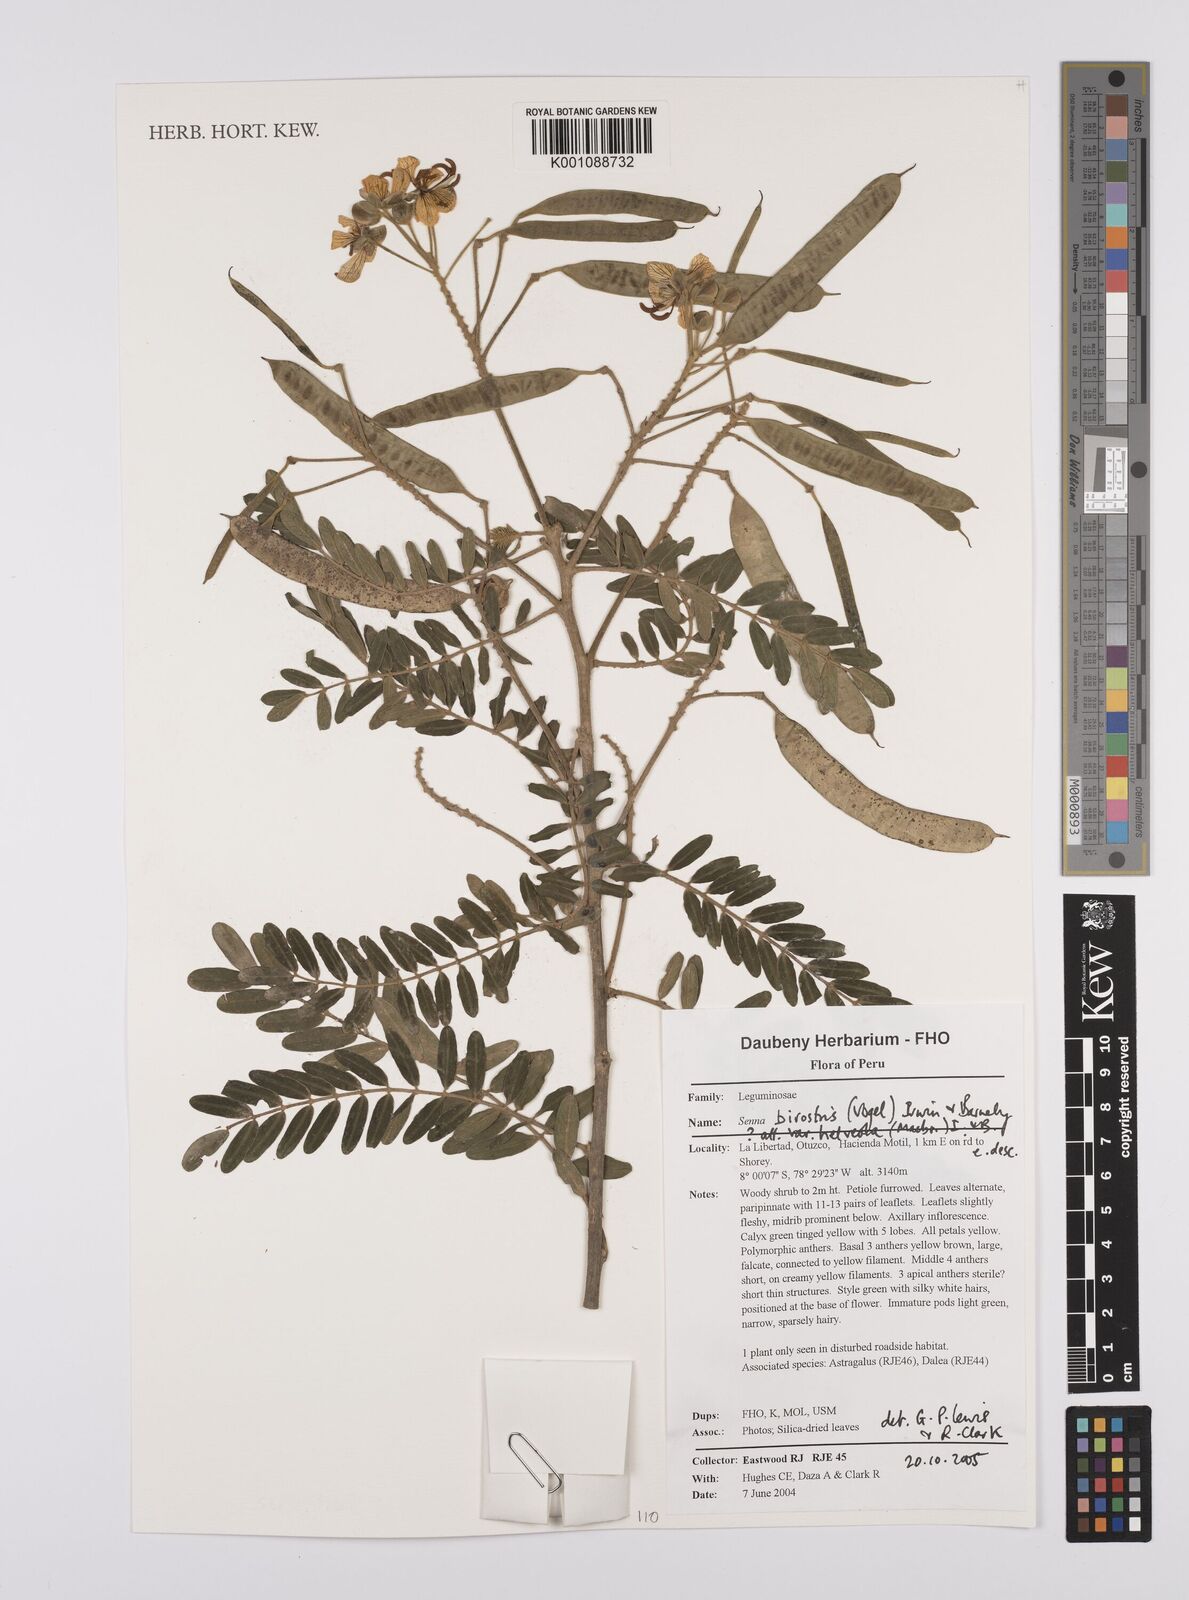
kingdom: Plantae
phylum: Tracheophyta
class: Magnoliopsida
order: Fabales
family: Fabaceae
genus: Senna
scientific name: Senna birostris
